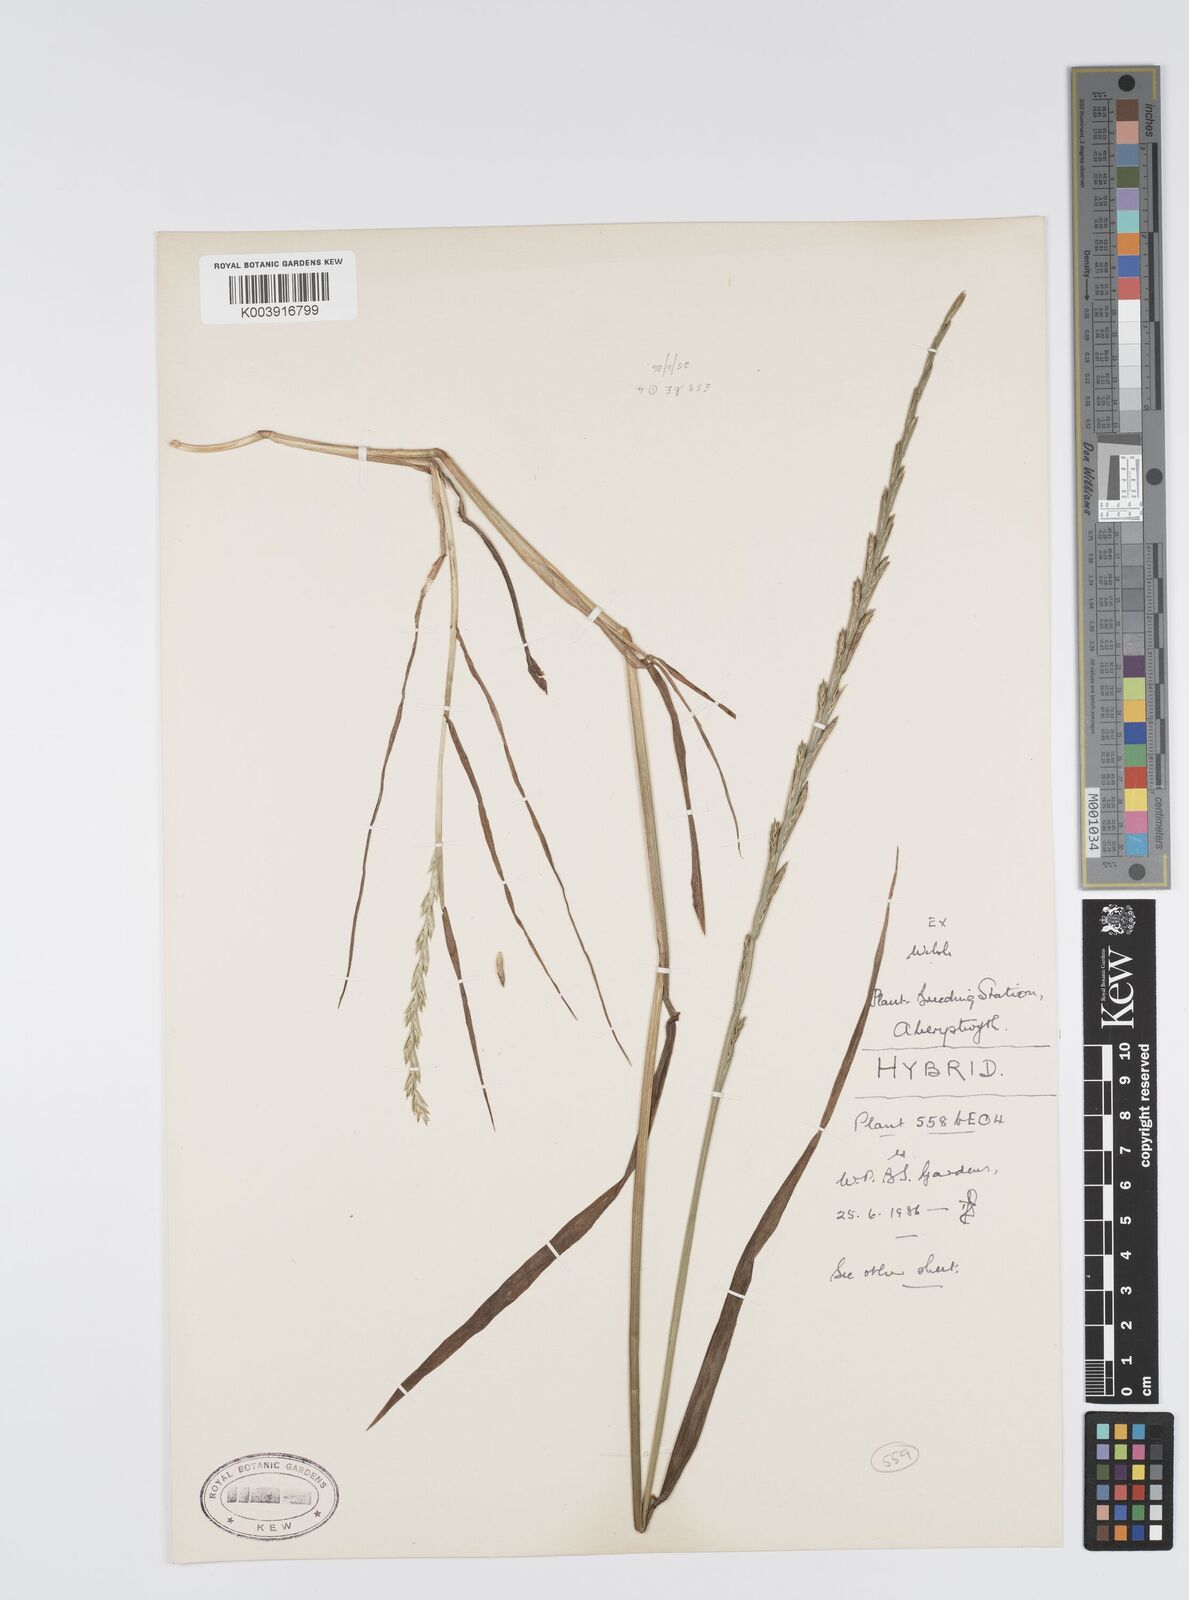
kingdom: Plantae
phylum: Tracheophyta
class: Liliopsida
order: Poales
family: Poaceae
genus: Lolium
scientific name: Lolium perenne
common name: Perennial ryegrass
